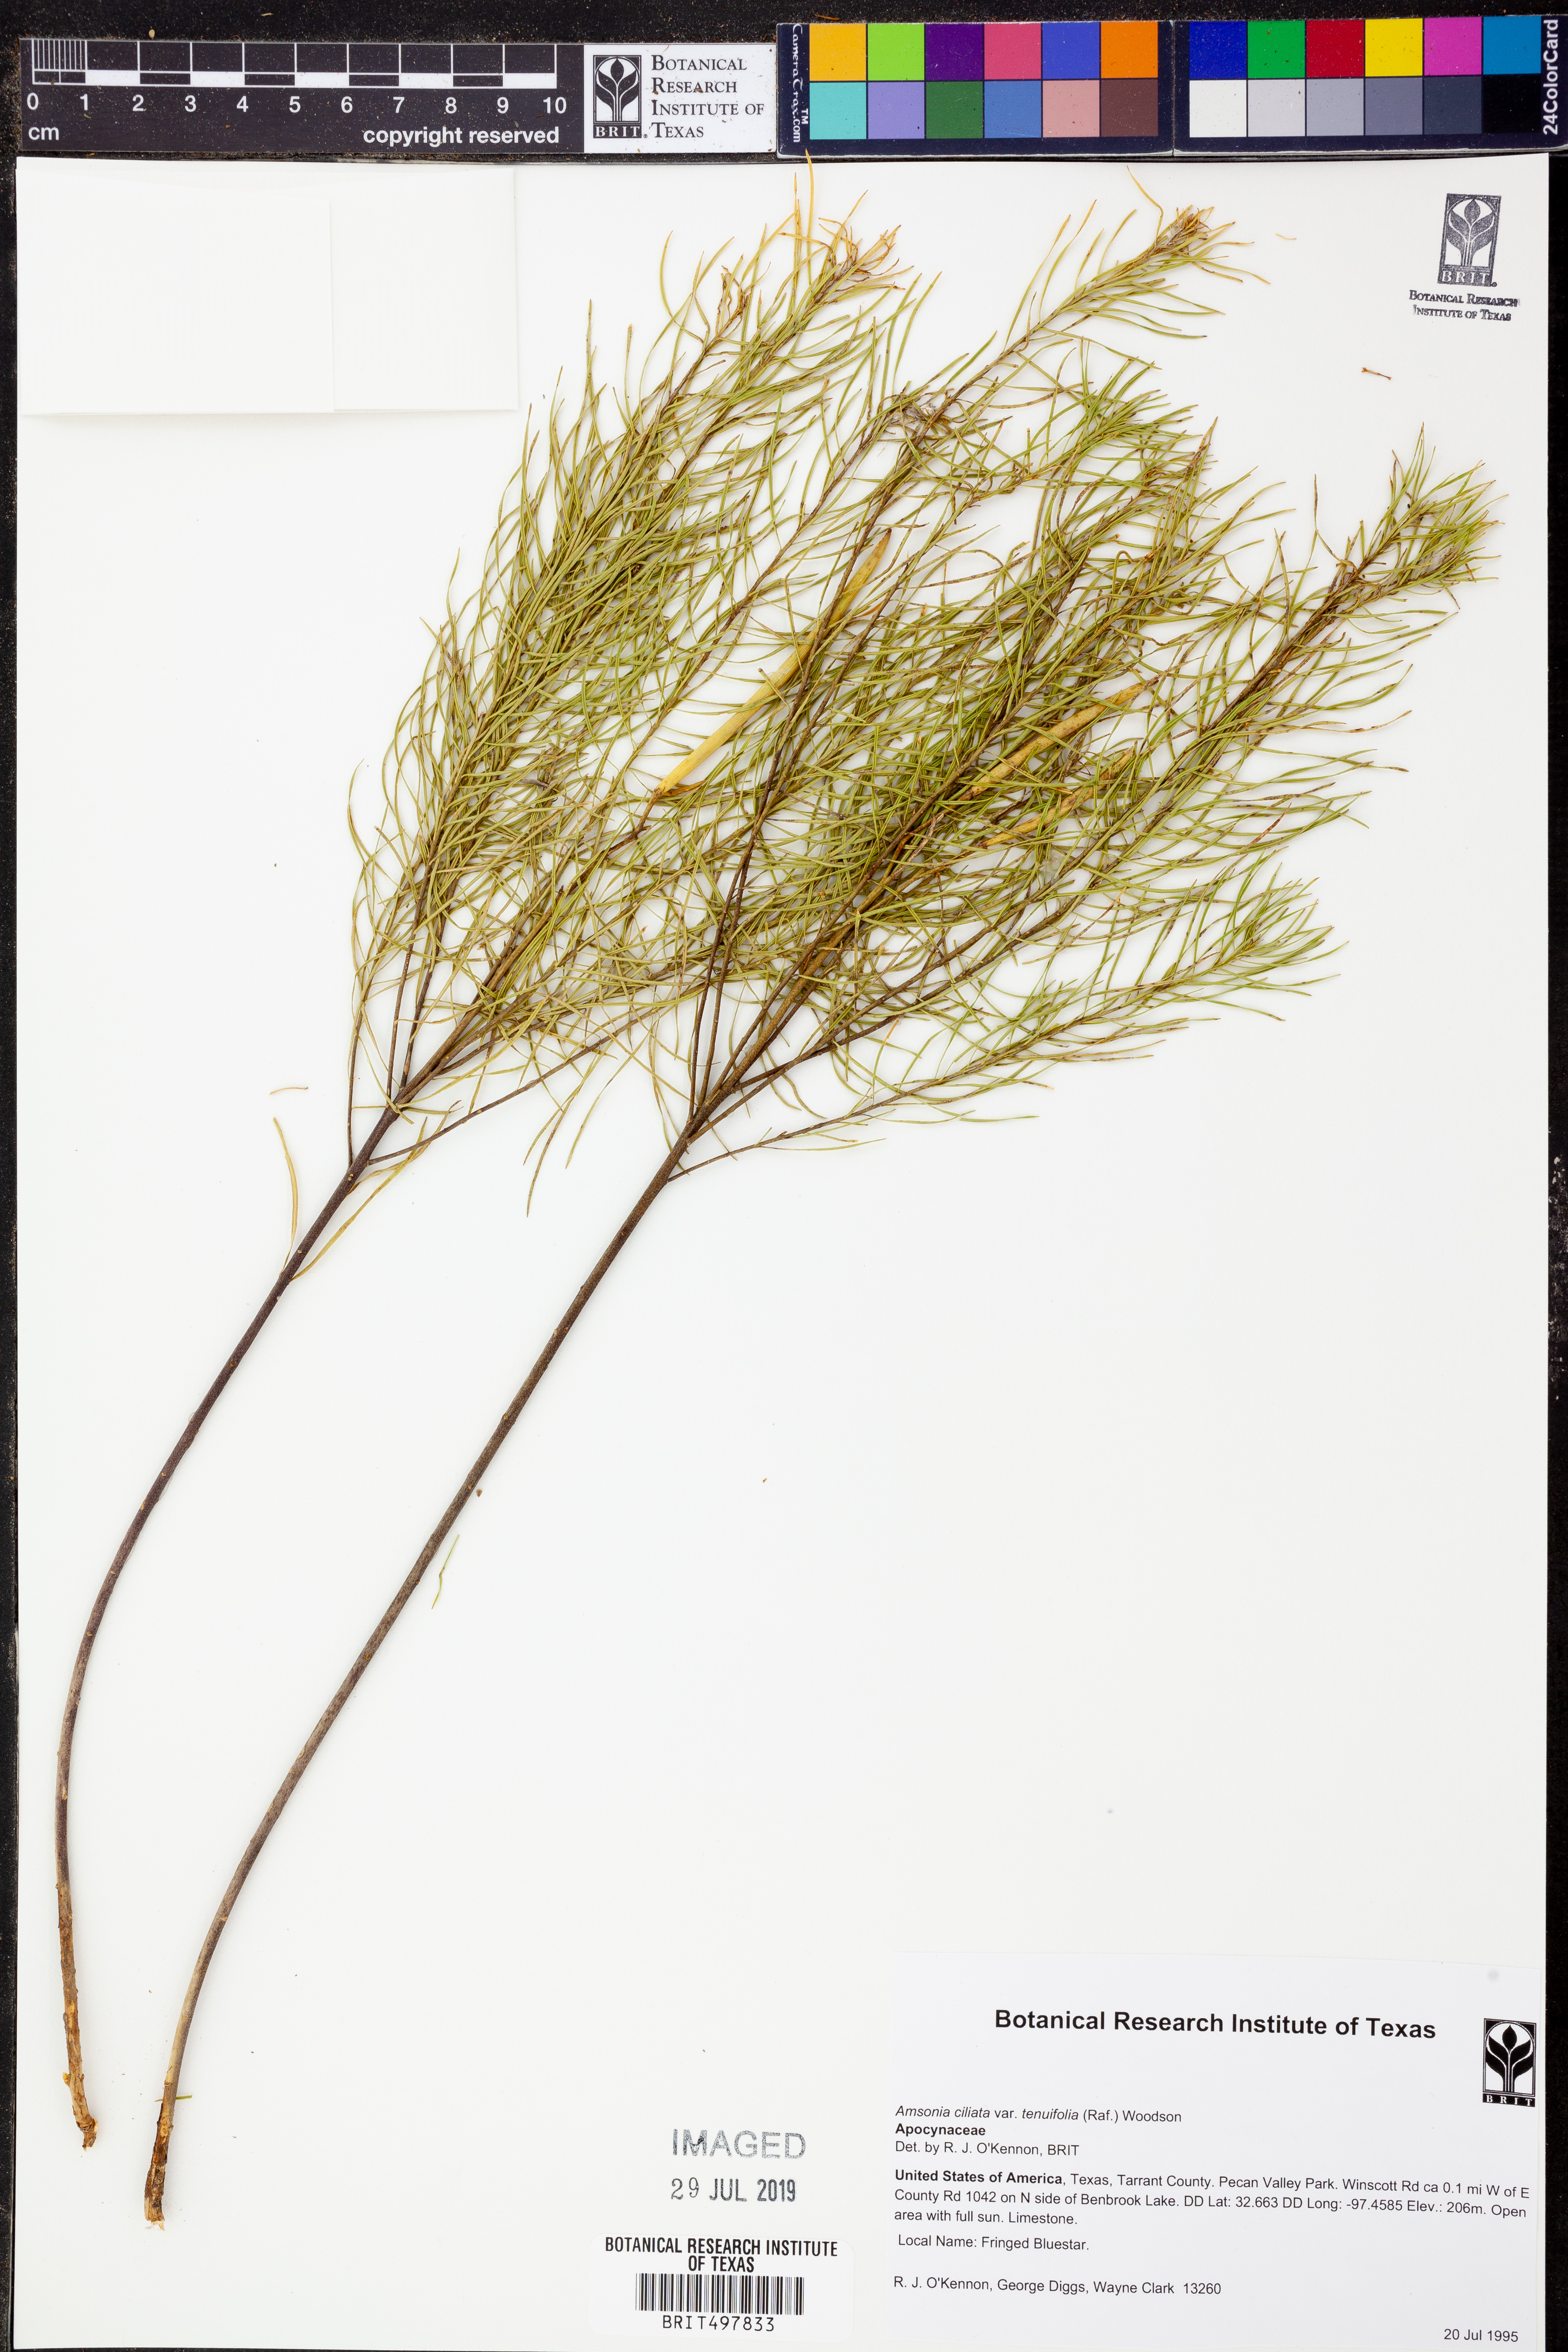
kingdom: Plantae
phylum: Tracheophyta
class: Magnoliopsida
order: Gentianales
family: Apocynaceae
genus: Amsonia
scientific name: Amsonia ciliata
